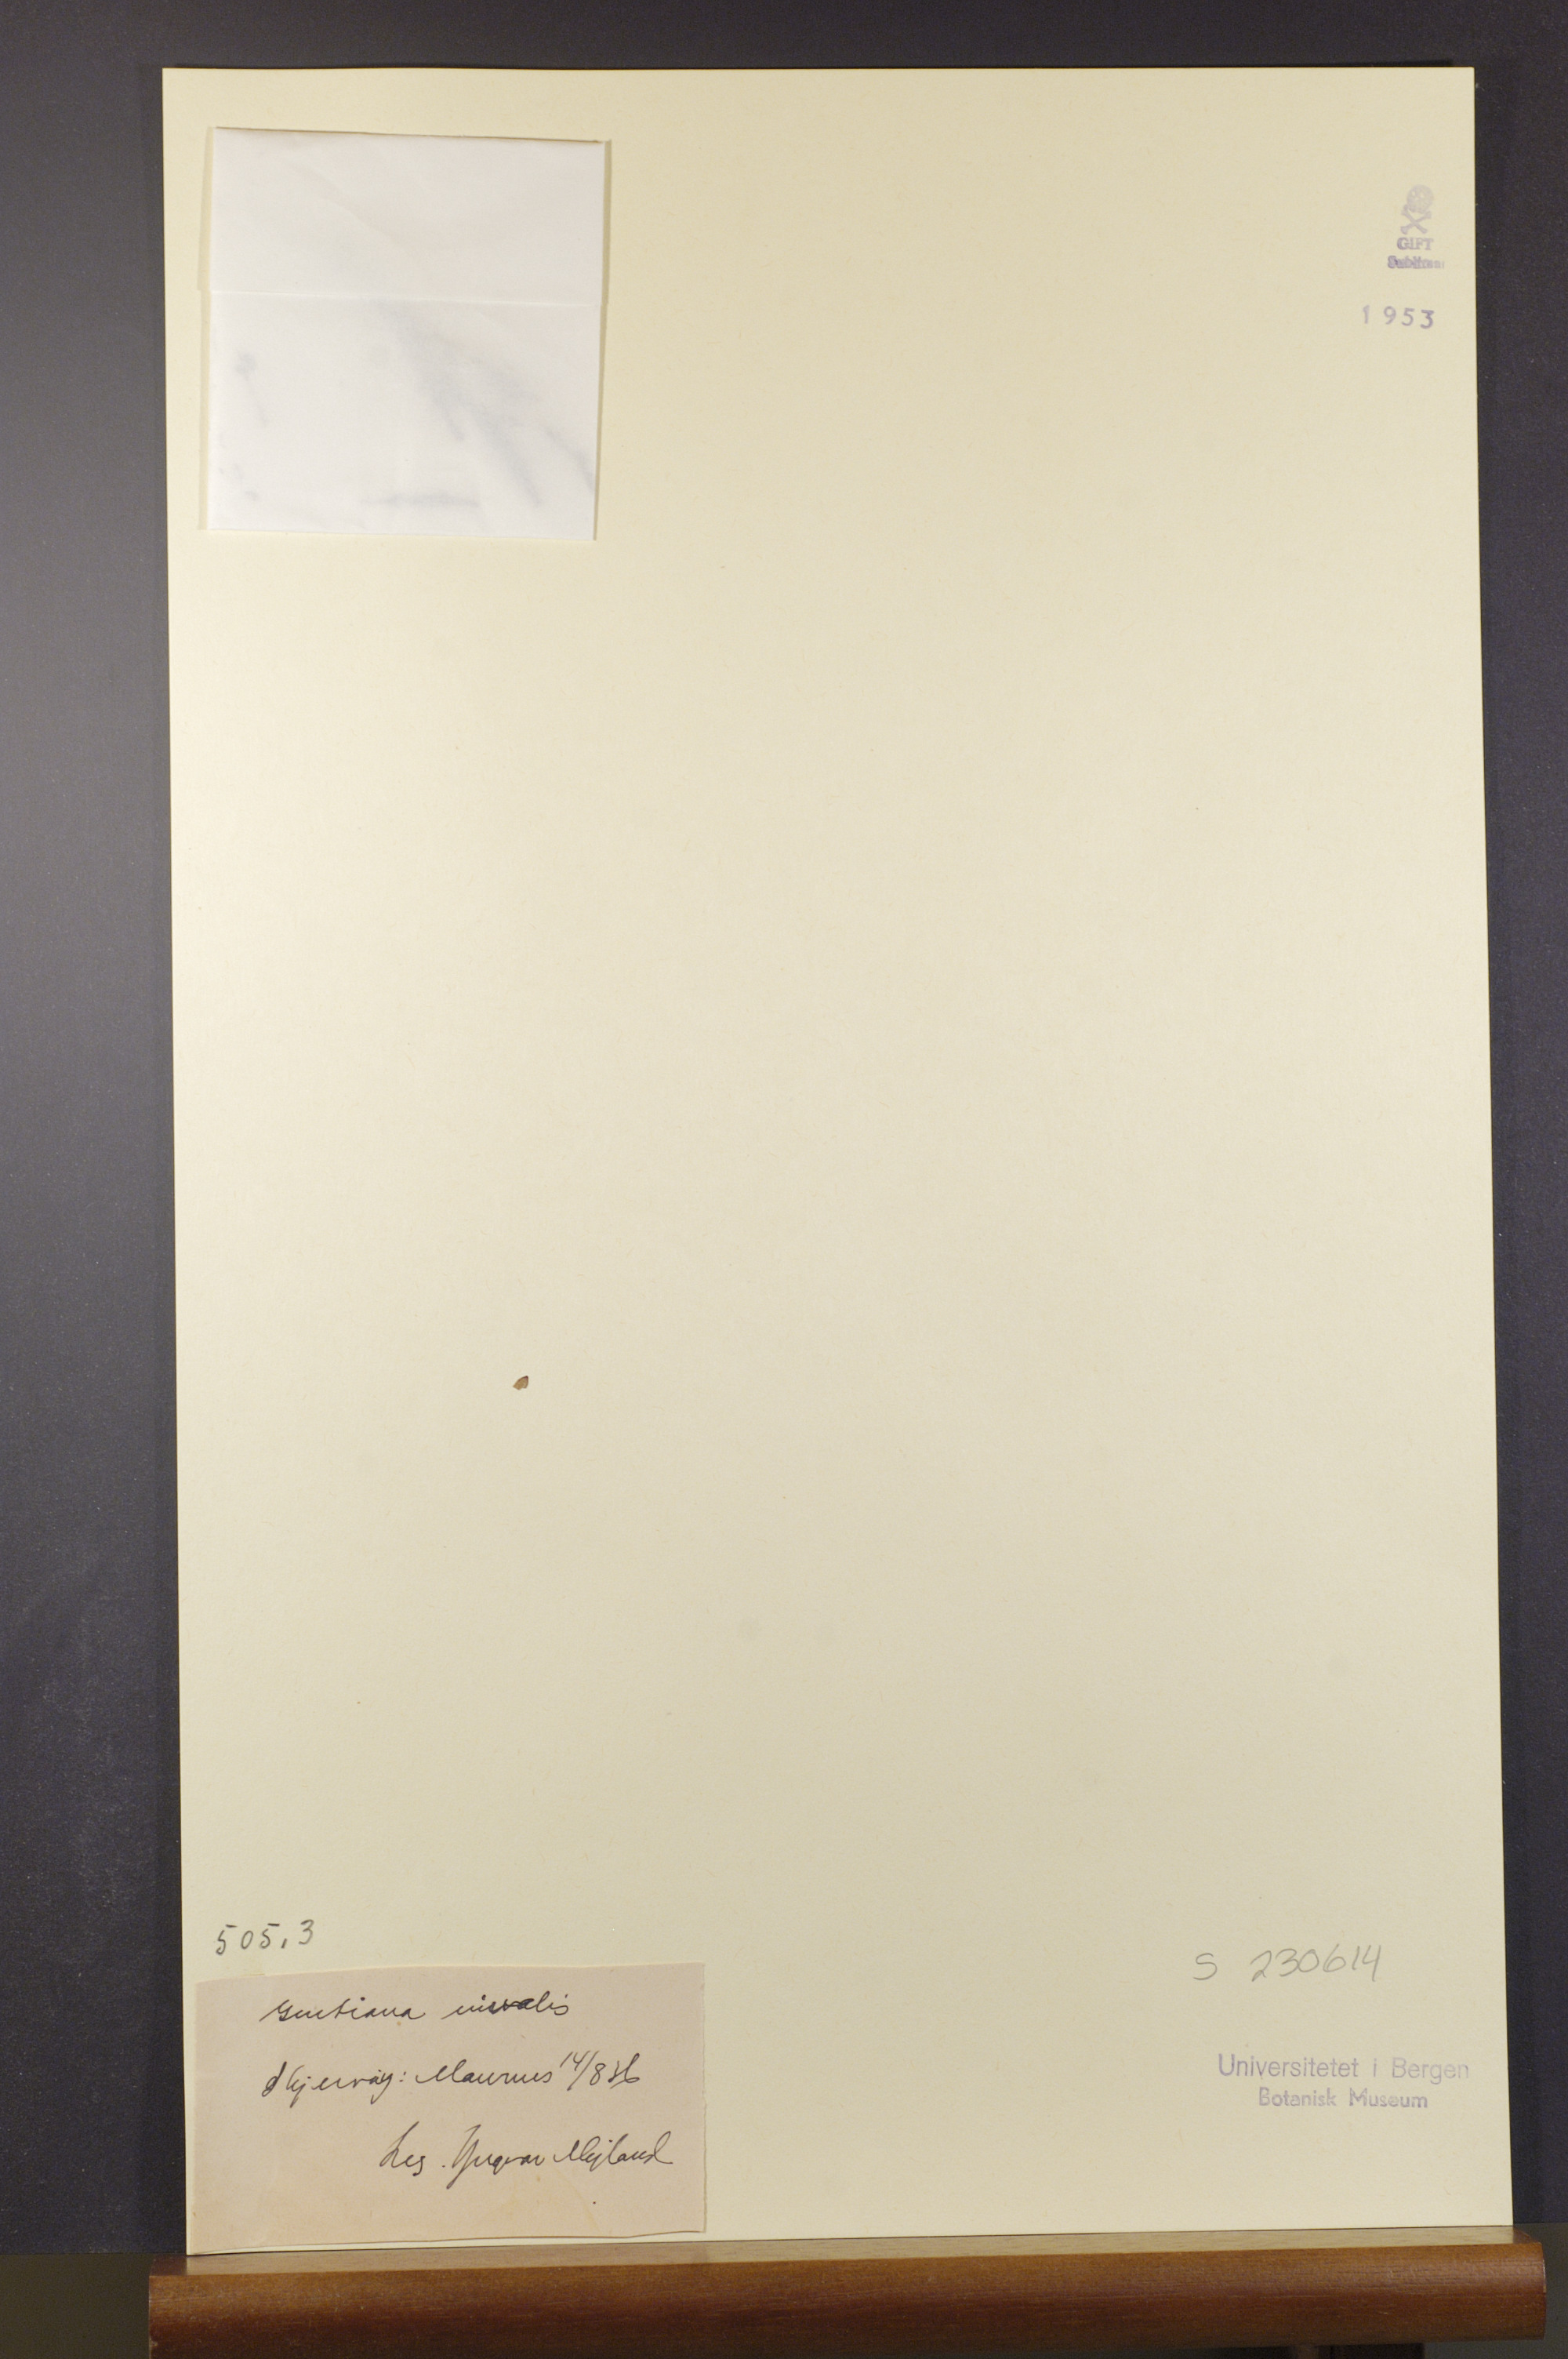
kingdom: Plantae
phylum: Tracheophyta
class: Magnoliopsida
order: Gentianales
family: Gentianaceae
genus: Gentiana
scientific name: Gentiana nivalis
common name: Alpine gentian
